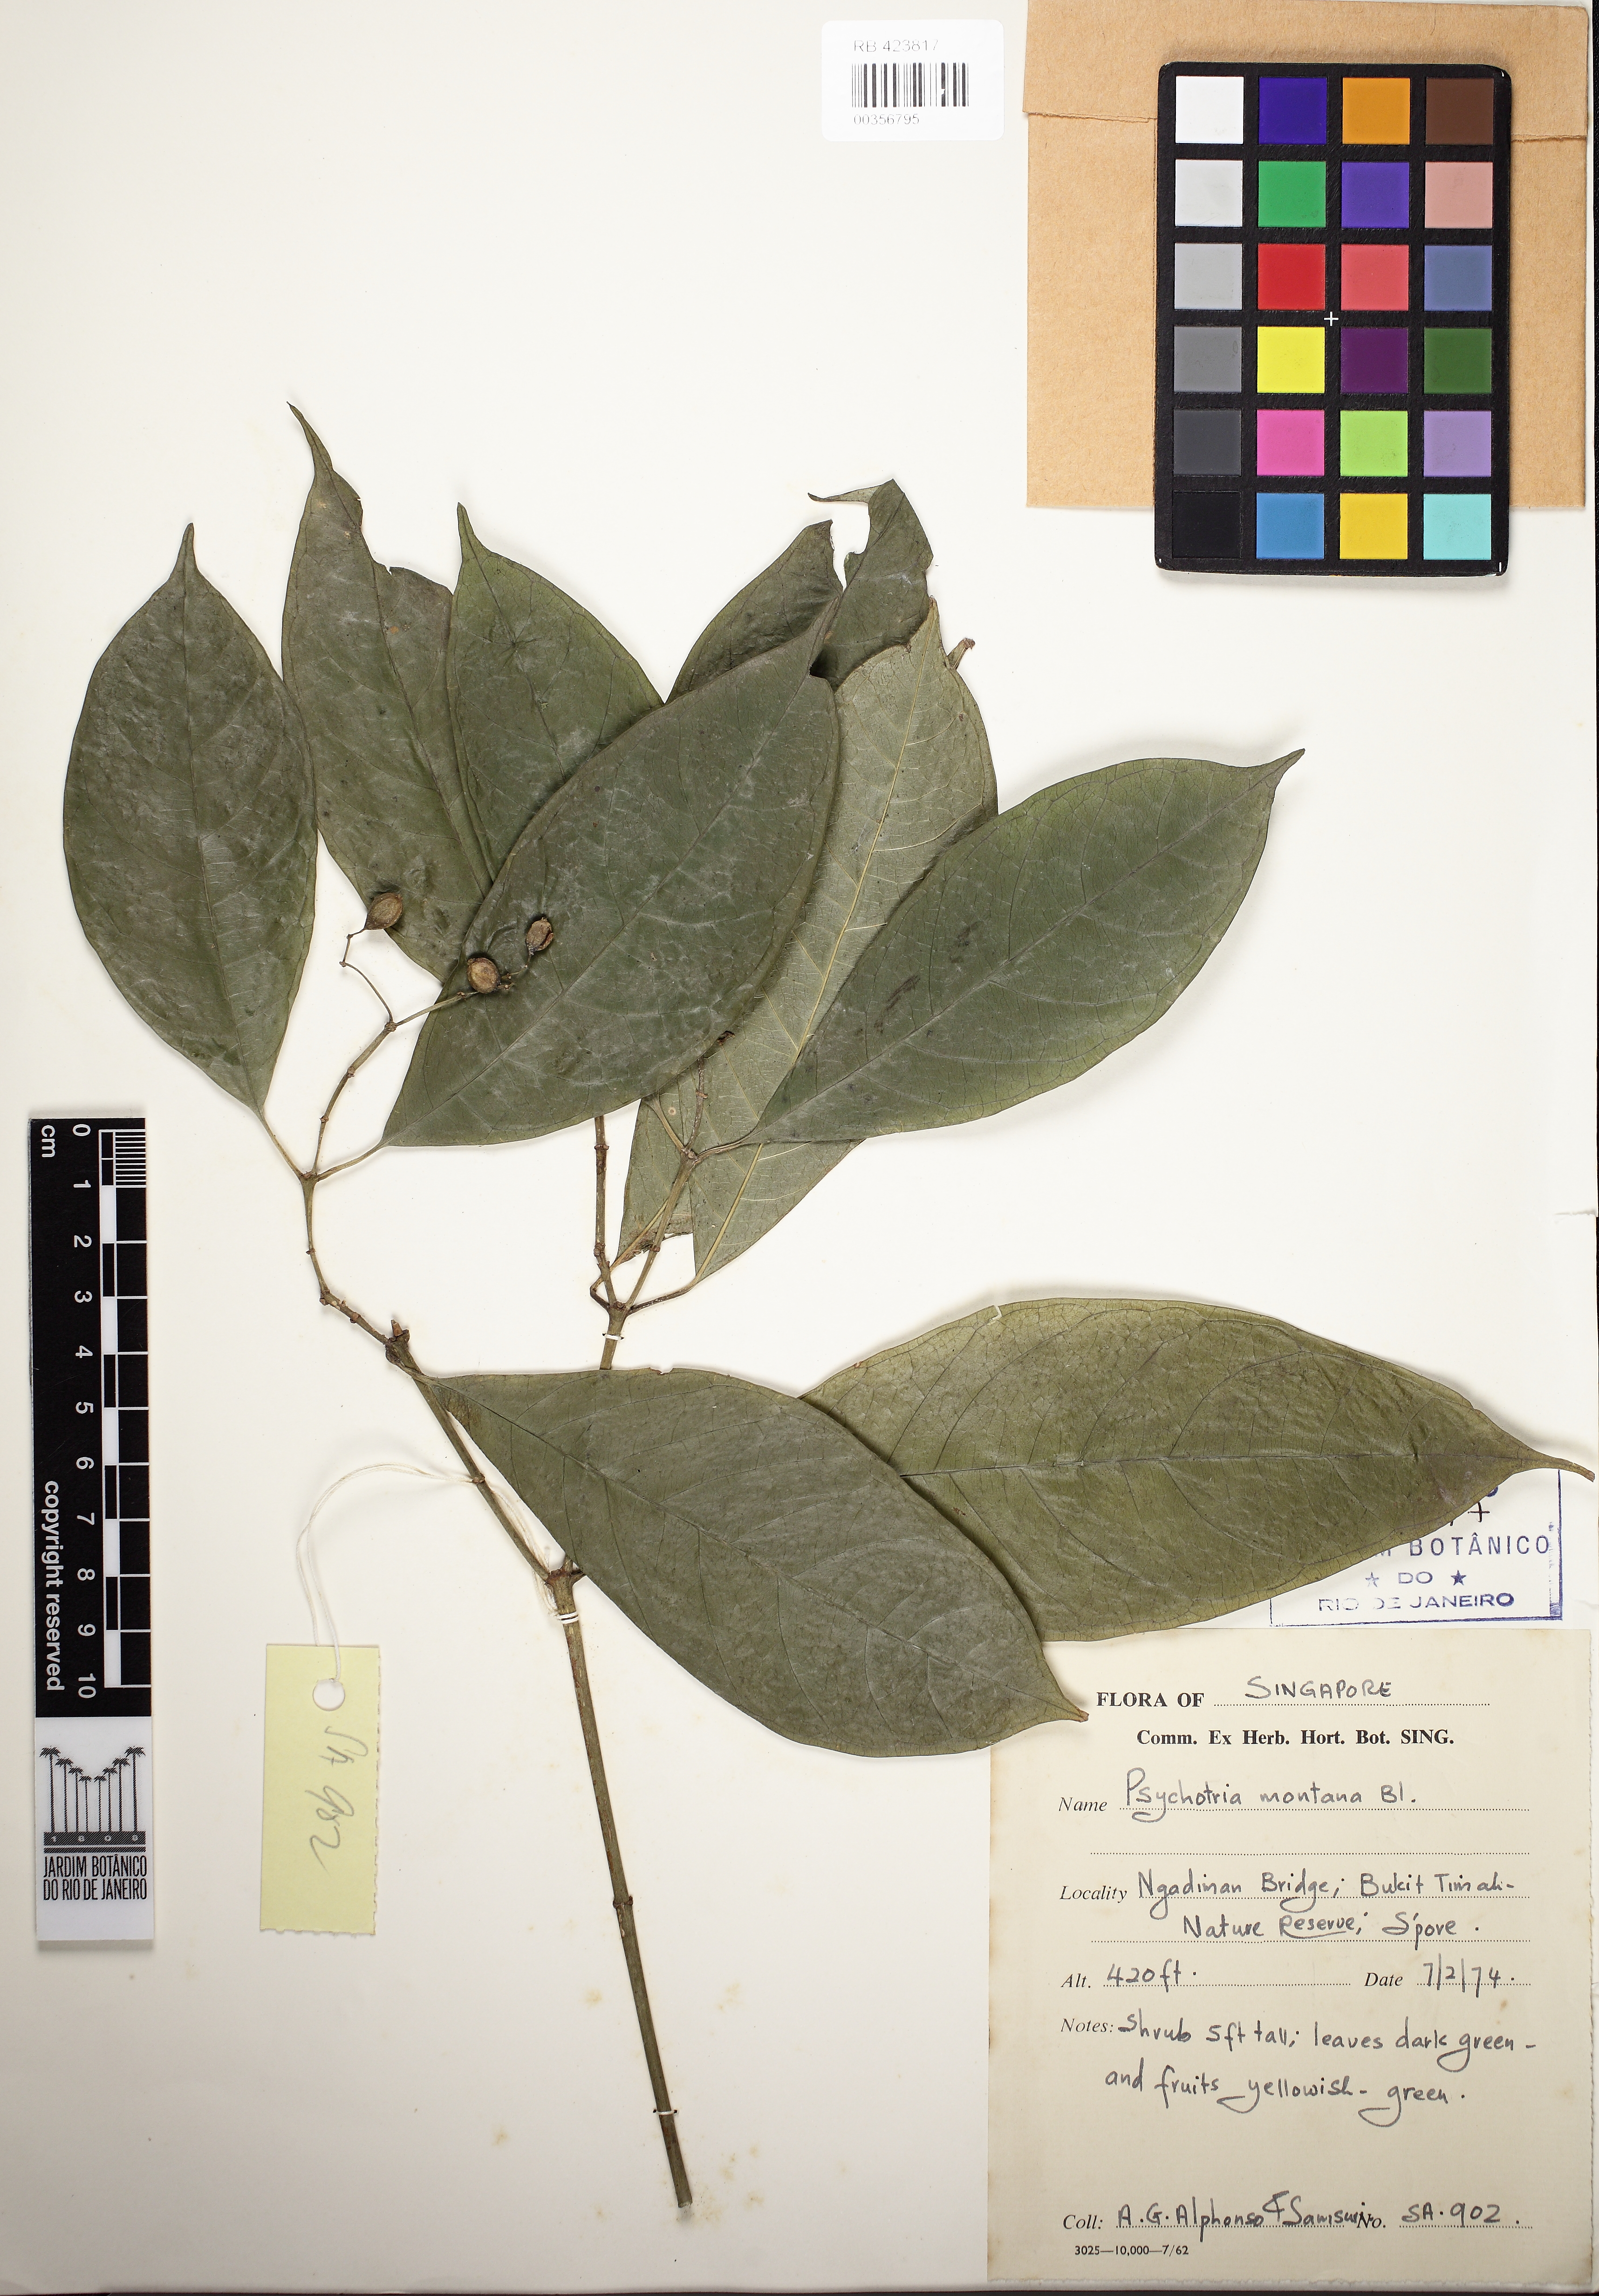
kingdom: Plantae
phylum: Tracheophyta
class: Magnoliopsida
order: Gentianales
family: Rubiaceae
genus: Eumachia
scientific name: Eumachia montana
